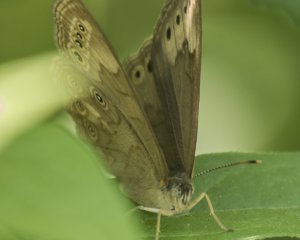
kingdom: Animalia
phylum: Arthropoda
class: Insecta
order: Lepidoptera
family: Nymphalidae
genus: Lethe
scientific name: Lethe eurydice
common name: Eyed Brown
